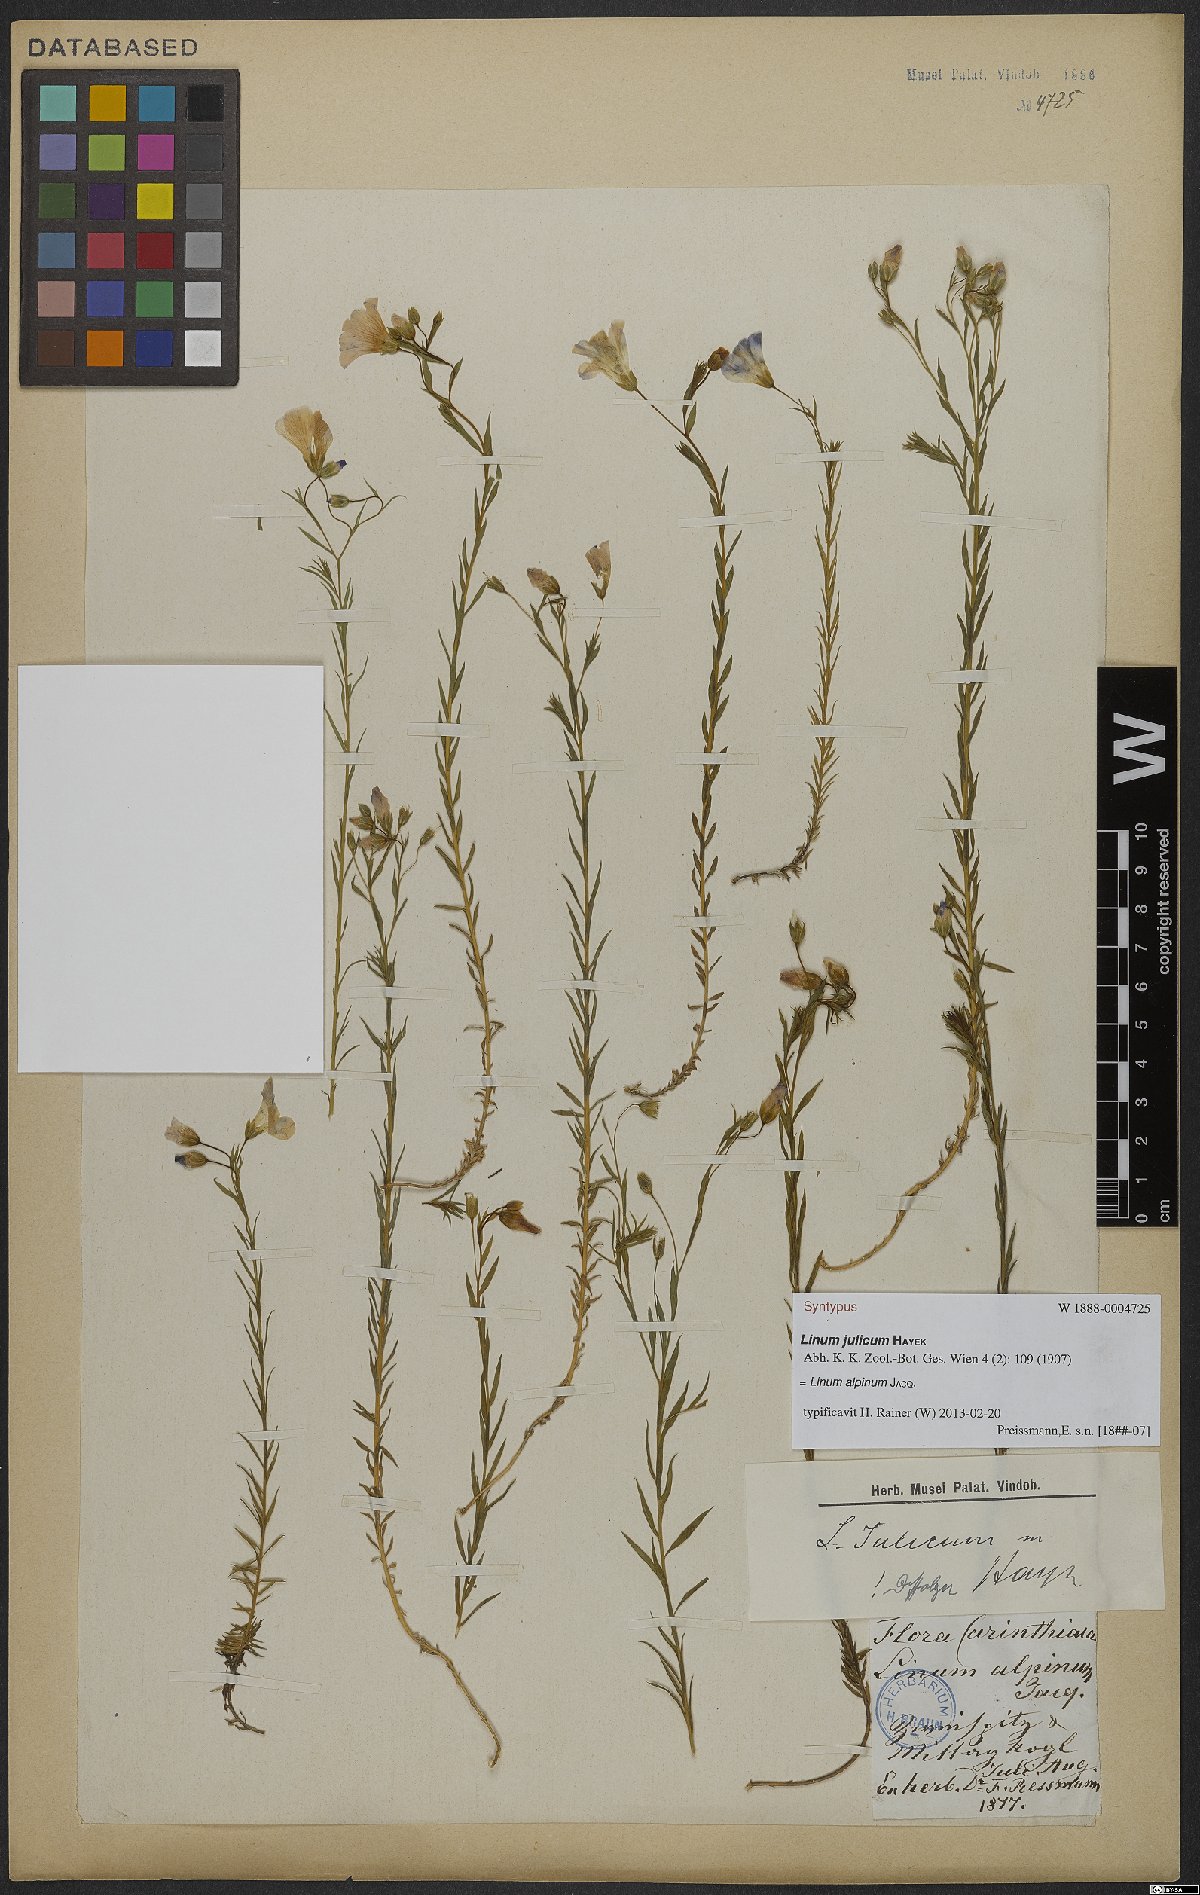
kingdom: Plantae
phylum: Tracheophyta
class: Magnoliopsida
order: Malpighiales
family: Linaceae
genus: Linum
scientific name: Linum alpinum
